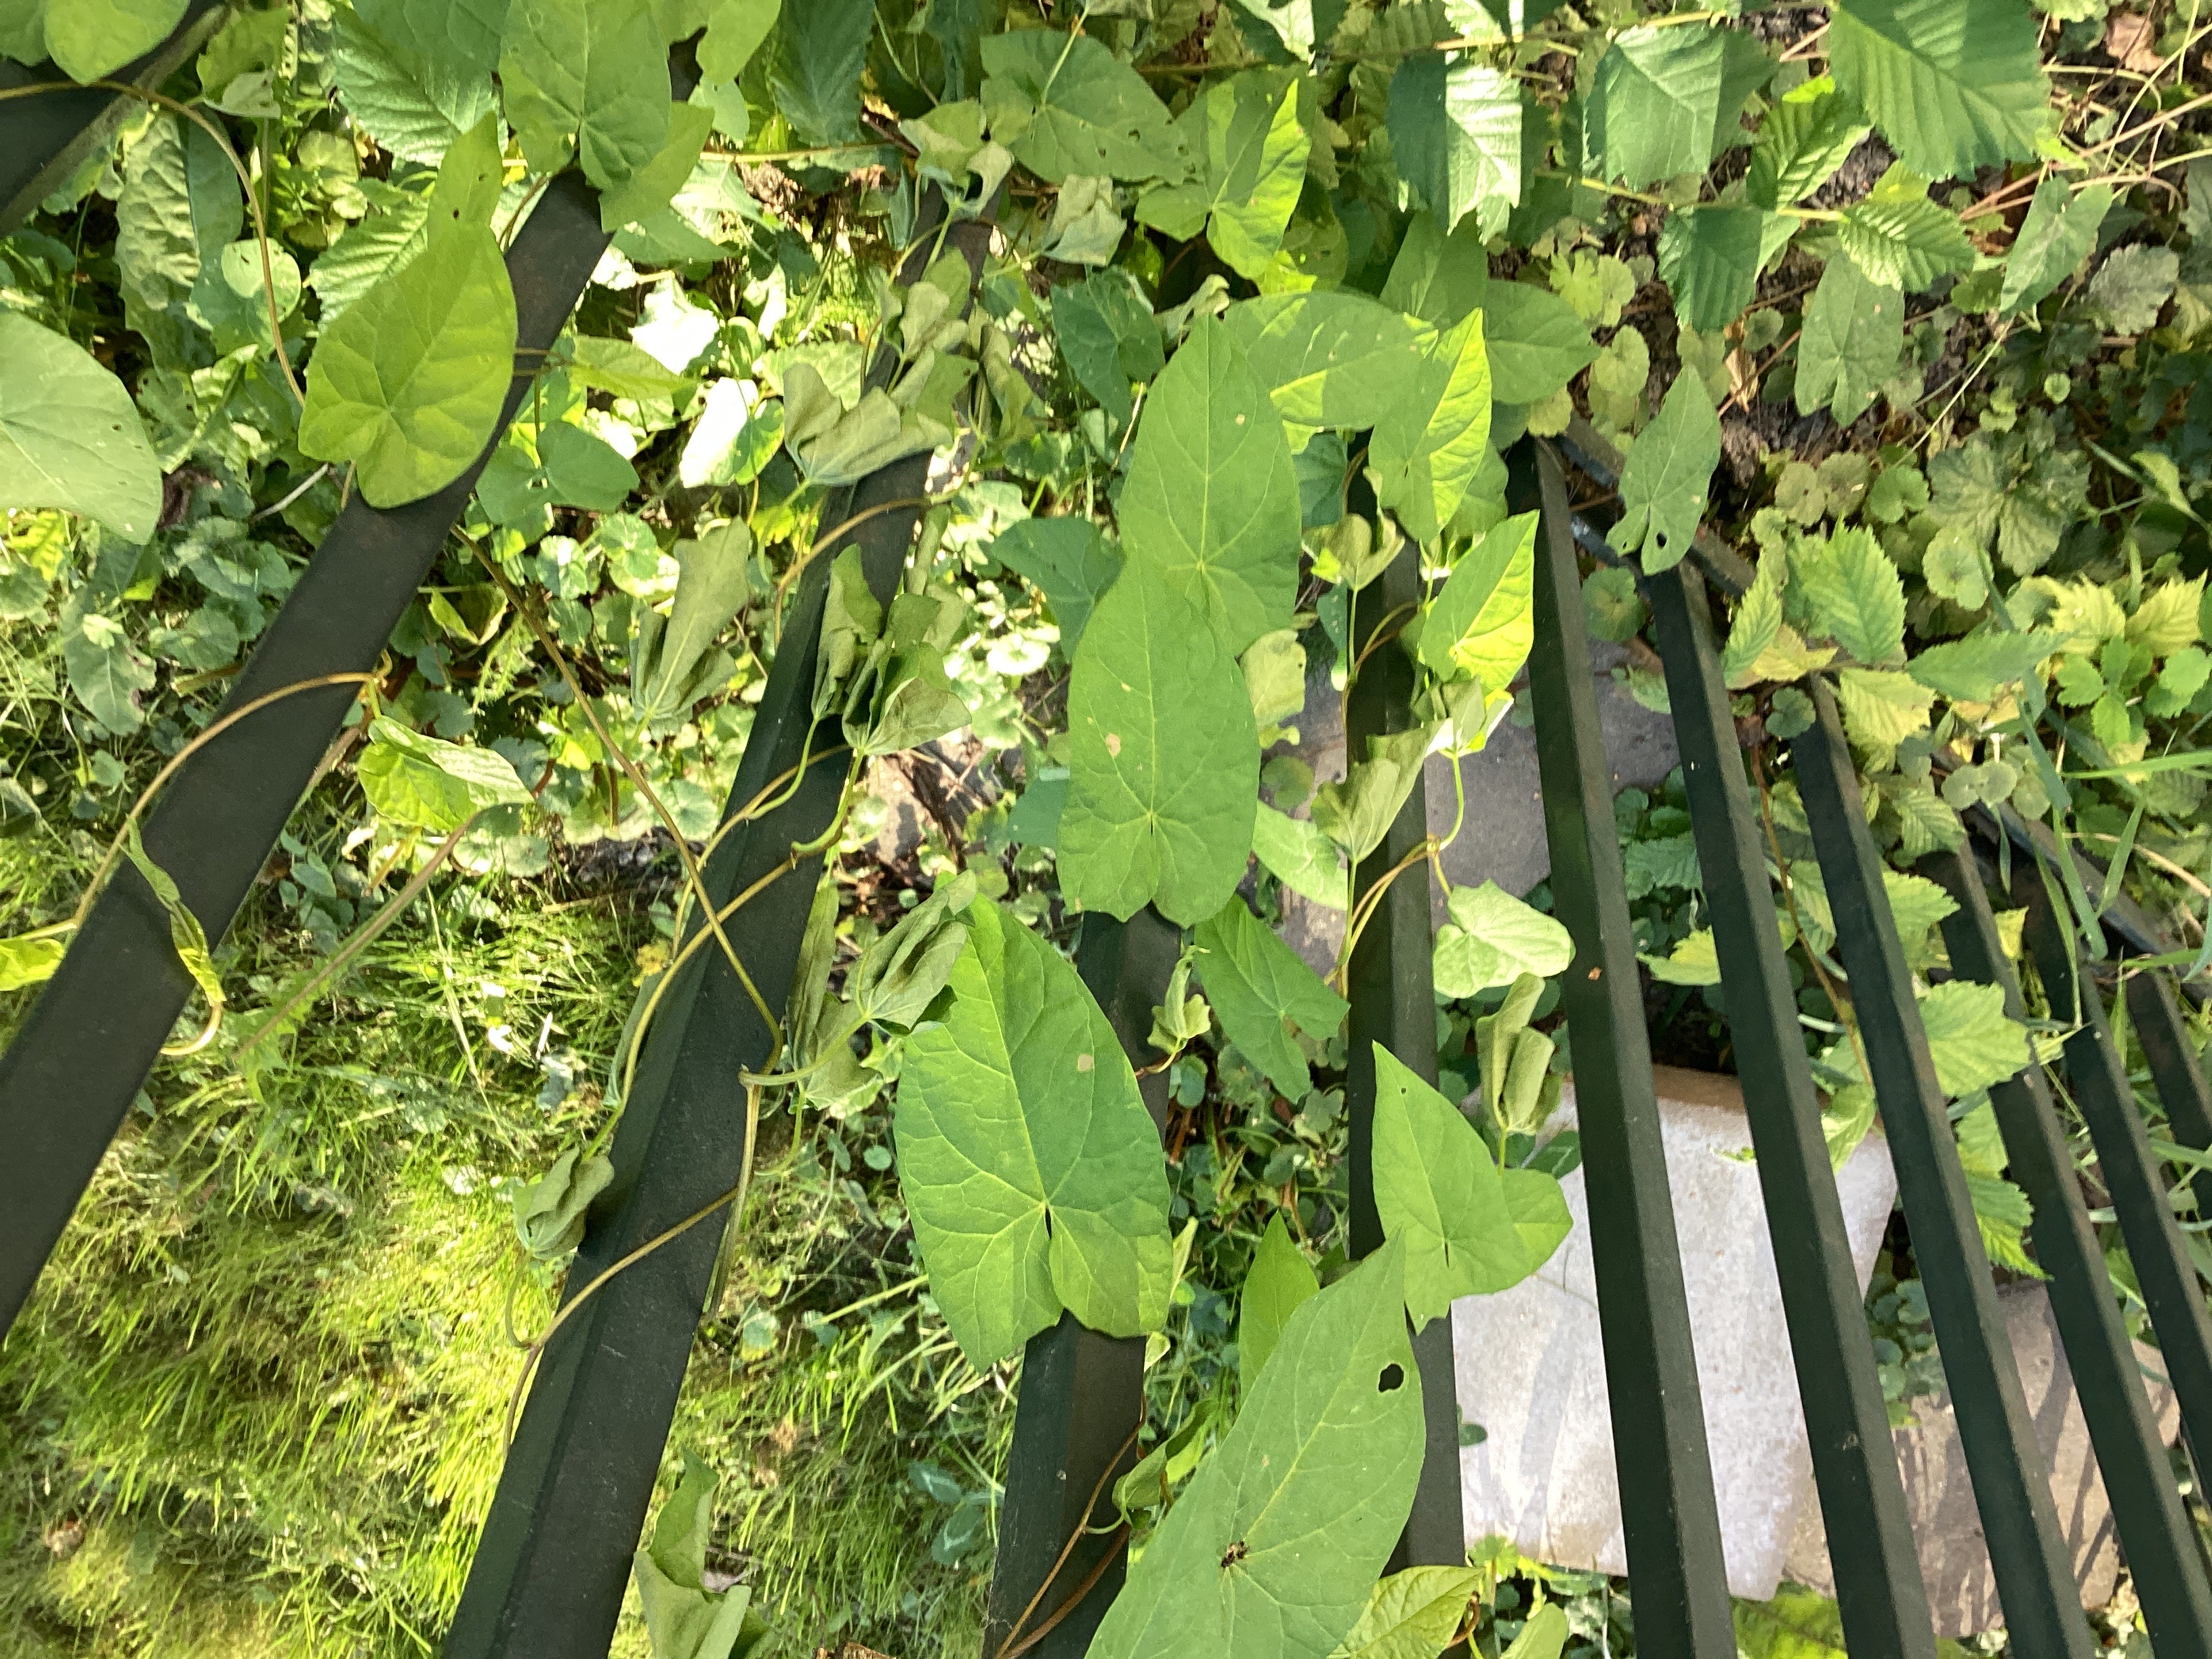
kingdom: Plantae
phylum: Tracheophyta
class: Magnoliopsida
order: Solanales
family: Convolvulaceae
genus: Calystegia
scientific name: Calystegia sepium
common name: prydstrandvindel
